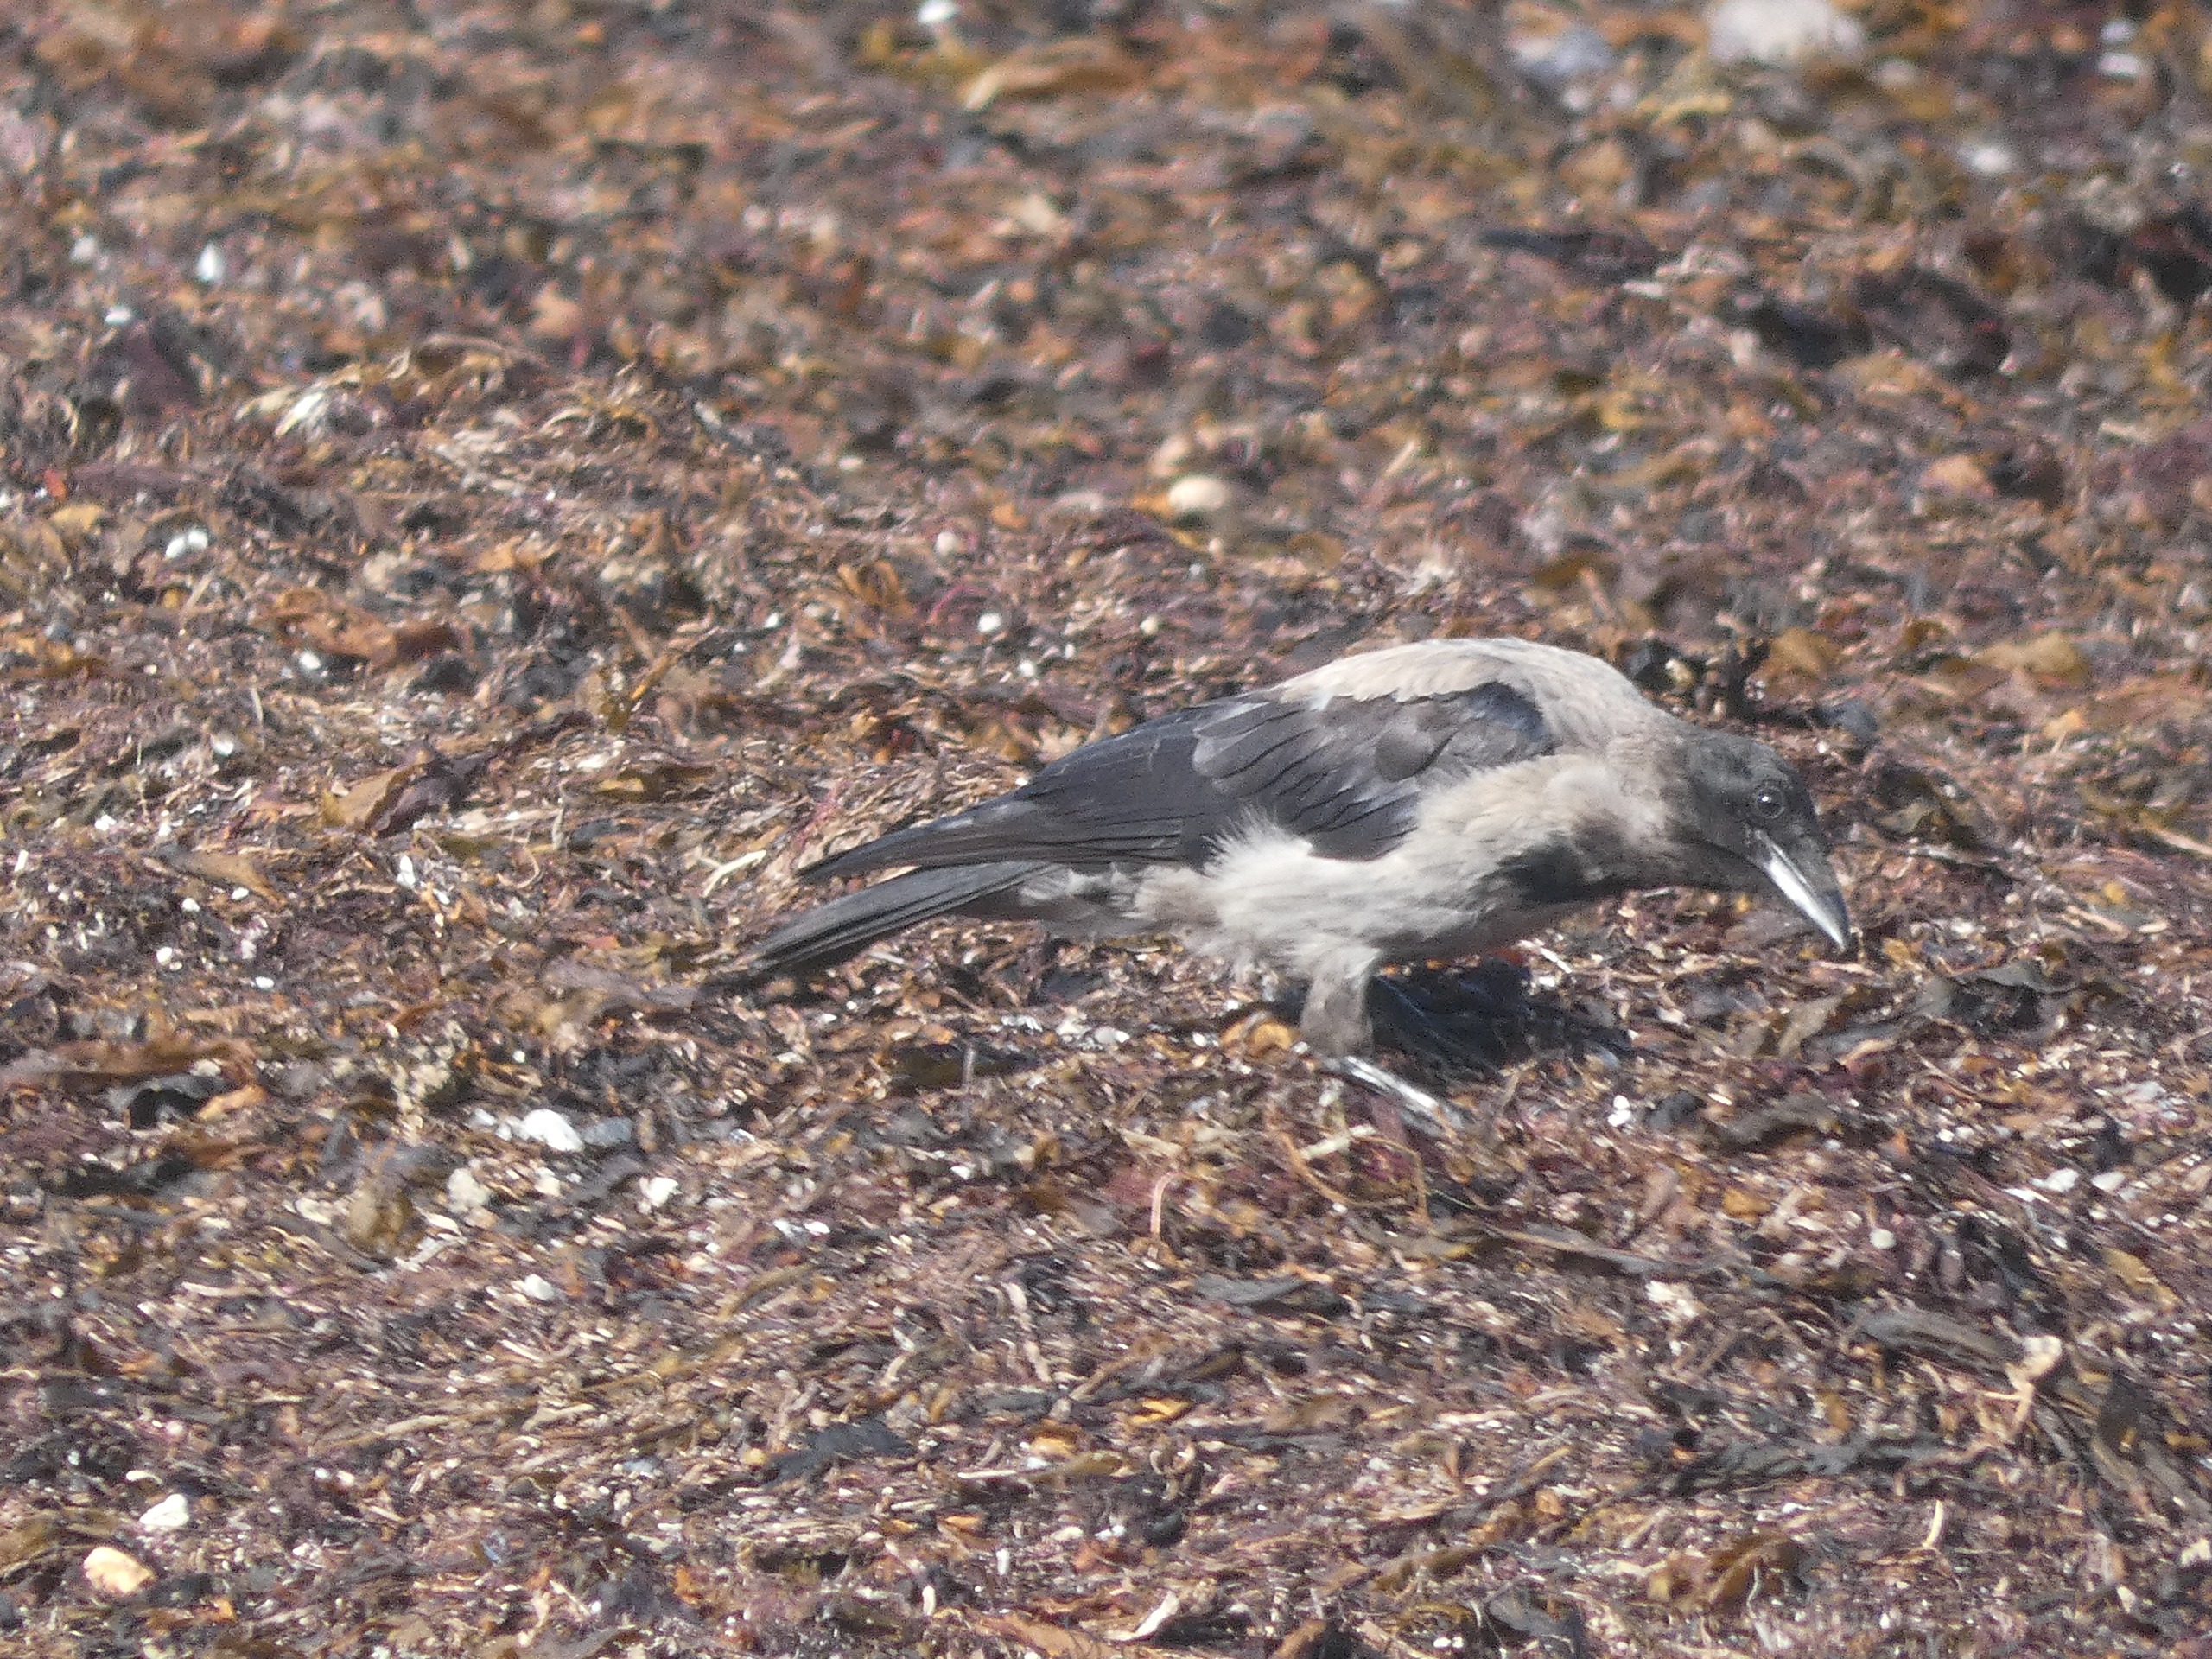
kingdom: Animalia
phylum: Chordata
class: Aves
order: Passeriformes
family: Corvidae
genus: Corvus
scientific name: Corvus cornix
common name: Gråkrage
